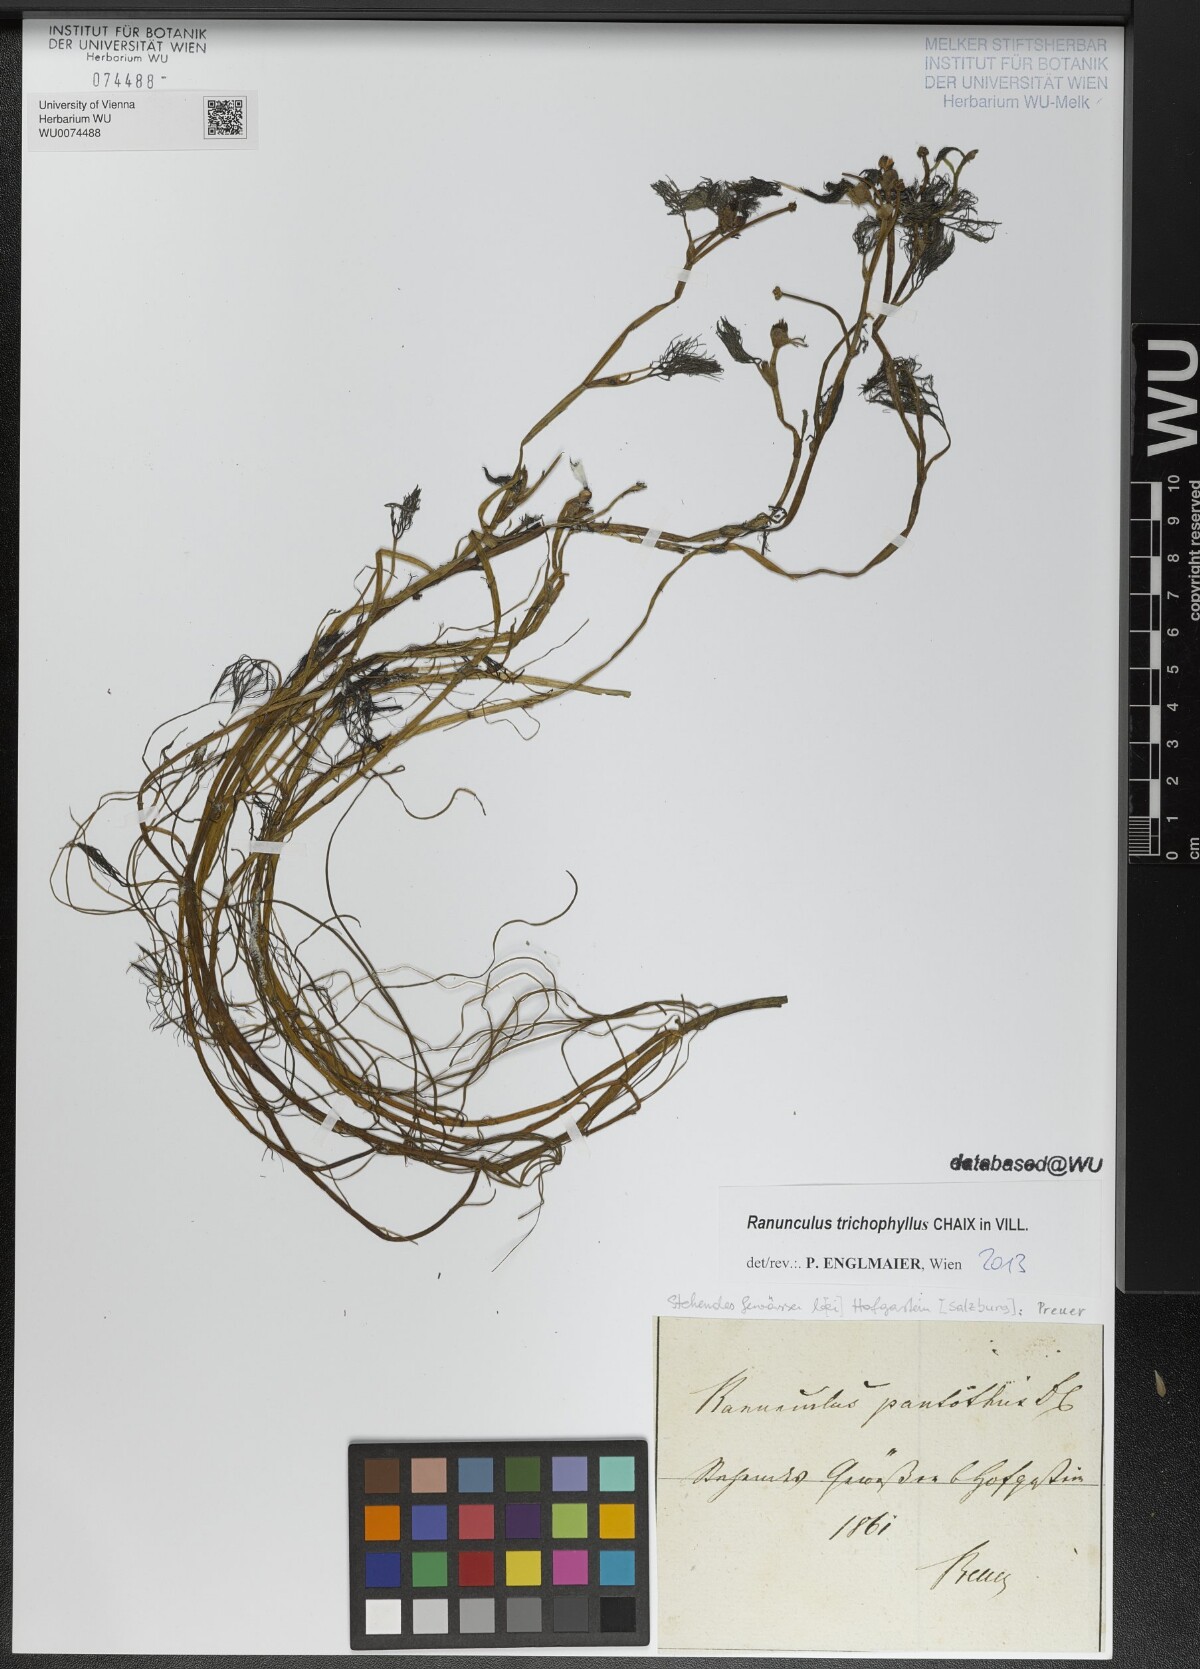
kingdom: Plantae
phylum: Tracheophyta
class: Magnoliopsida
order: Ranunculales
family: Ranunculaceae
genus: Ranunculus
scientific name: Ranunculus trichophyllus
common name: Thread-leaved water-crowfoot
